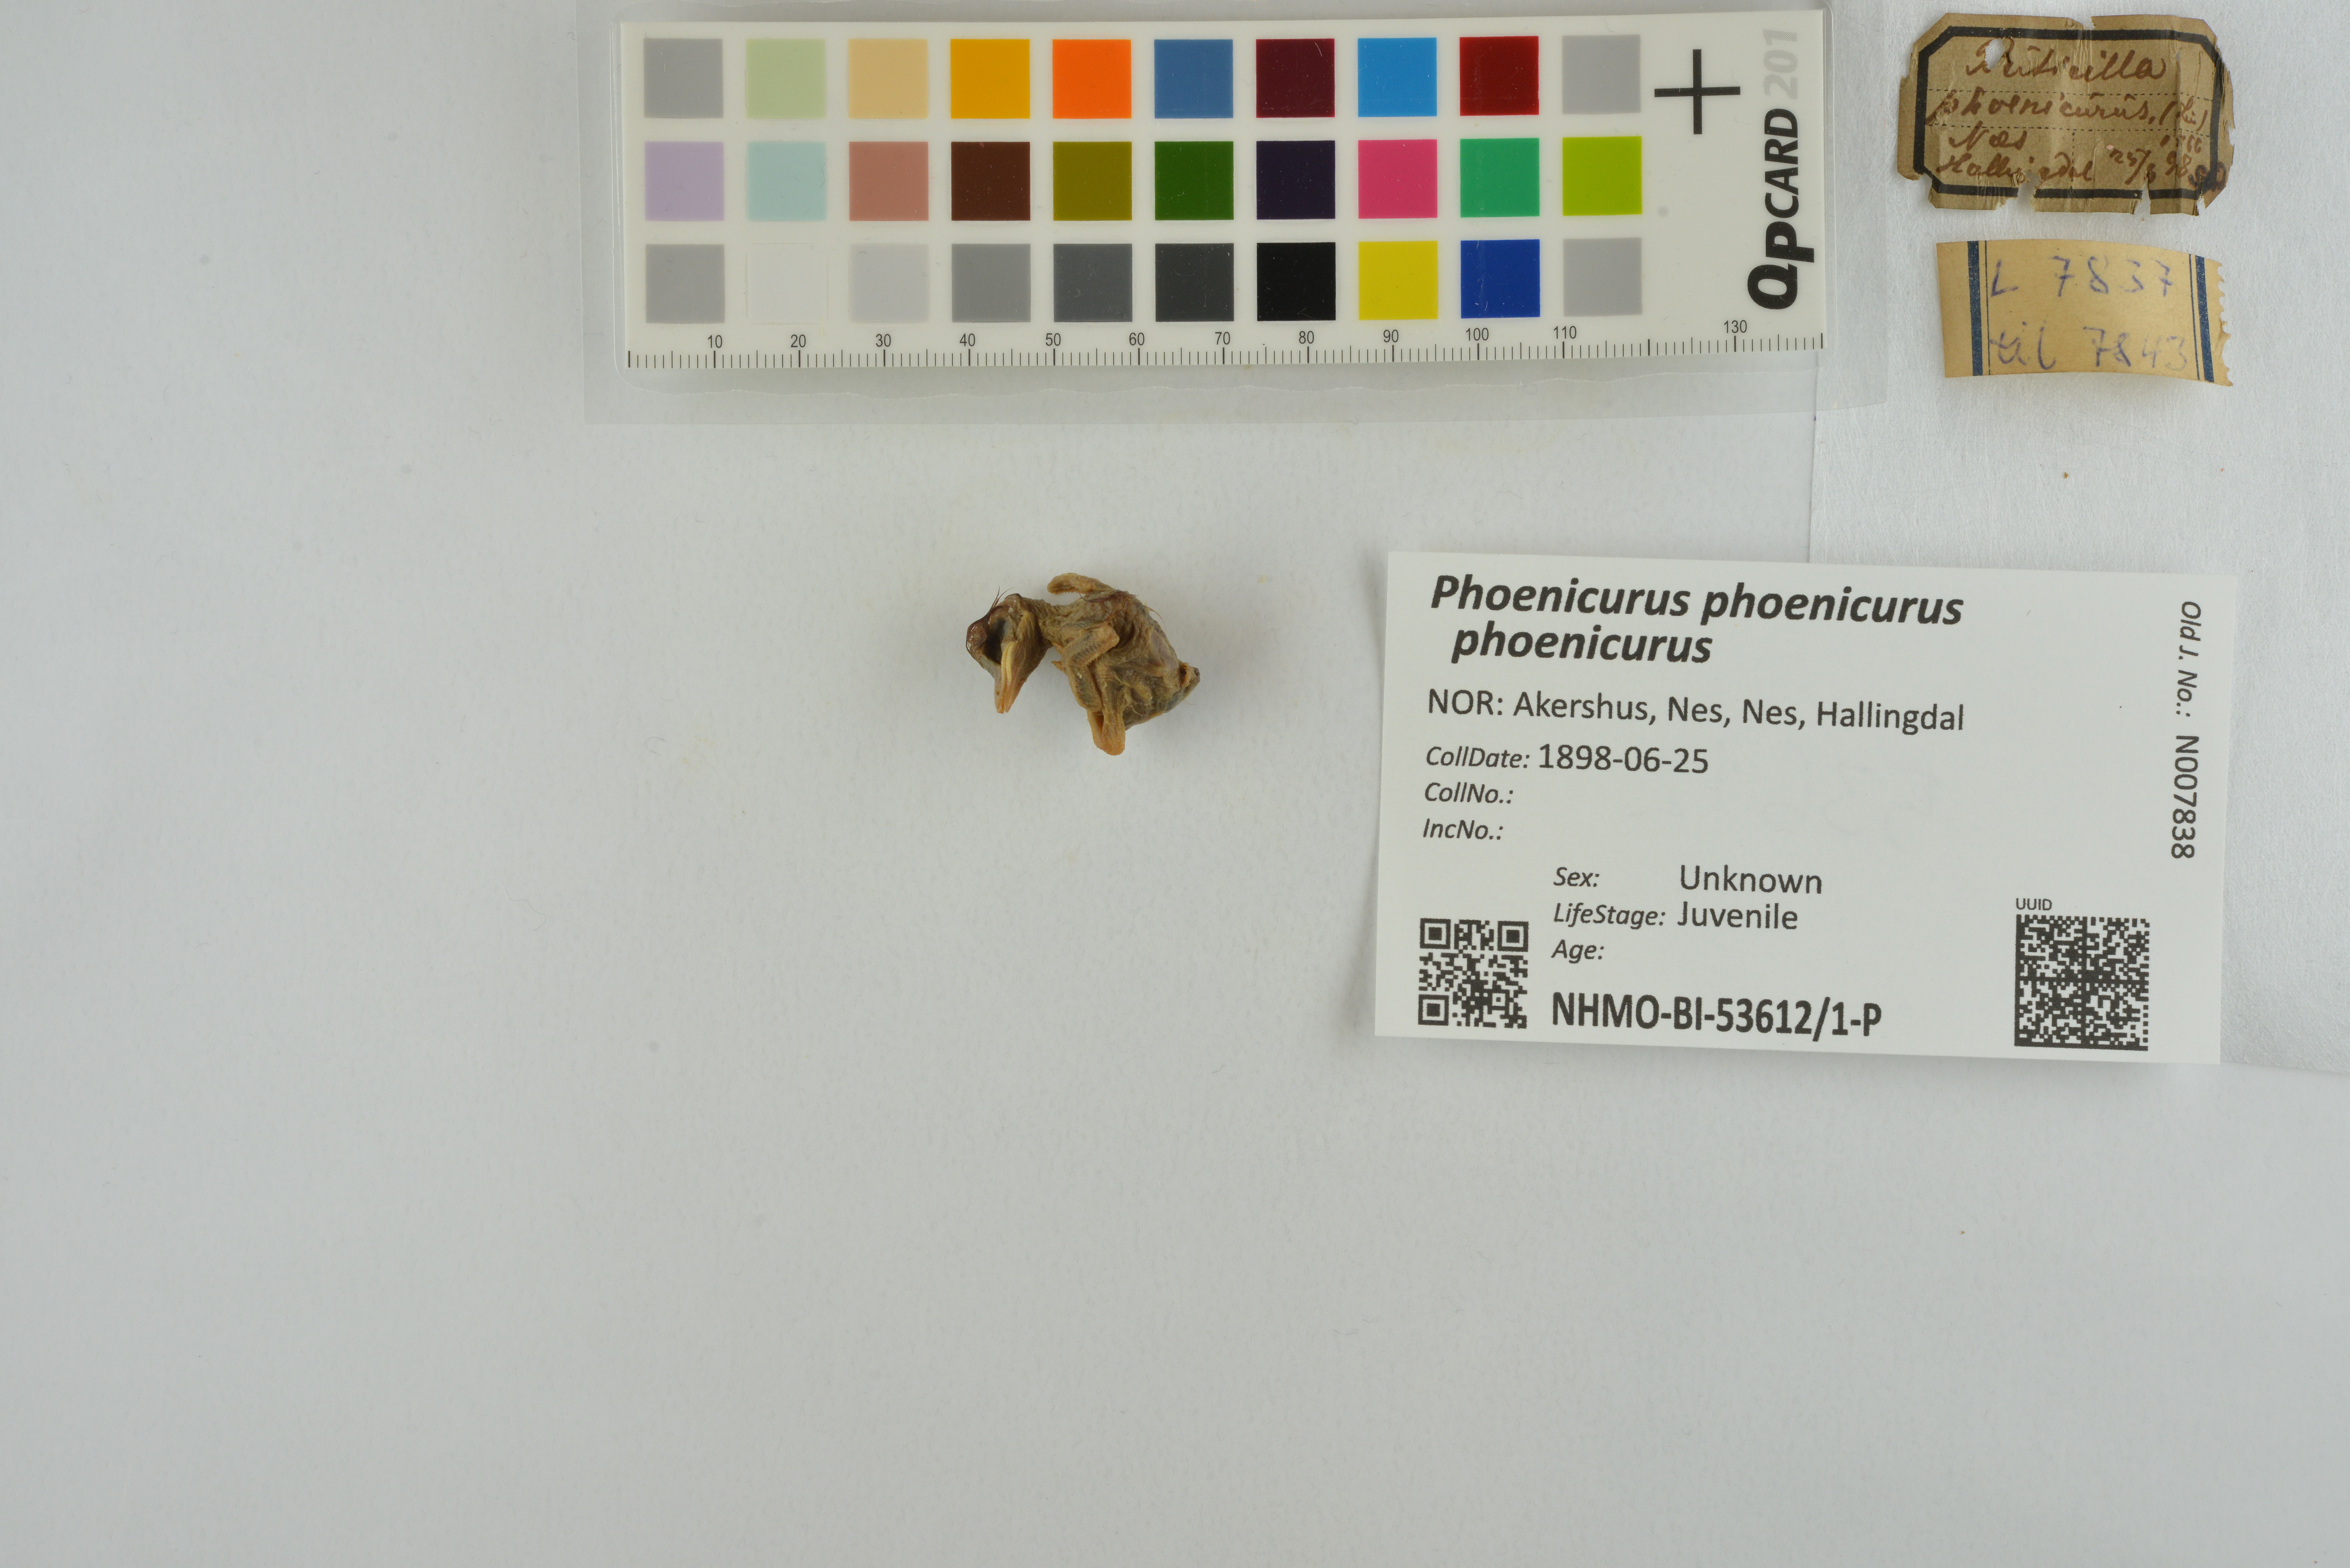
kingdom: Animalia
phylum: Chordata
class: Aves
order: Passeriformes
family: Muscicapidae
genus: Phoenicurus
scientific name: Phoenicurus phoenicurus
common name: Common redstart
